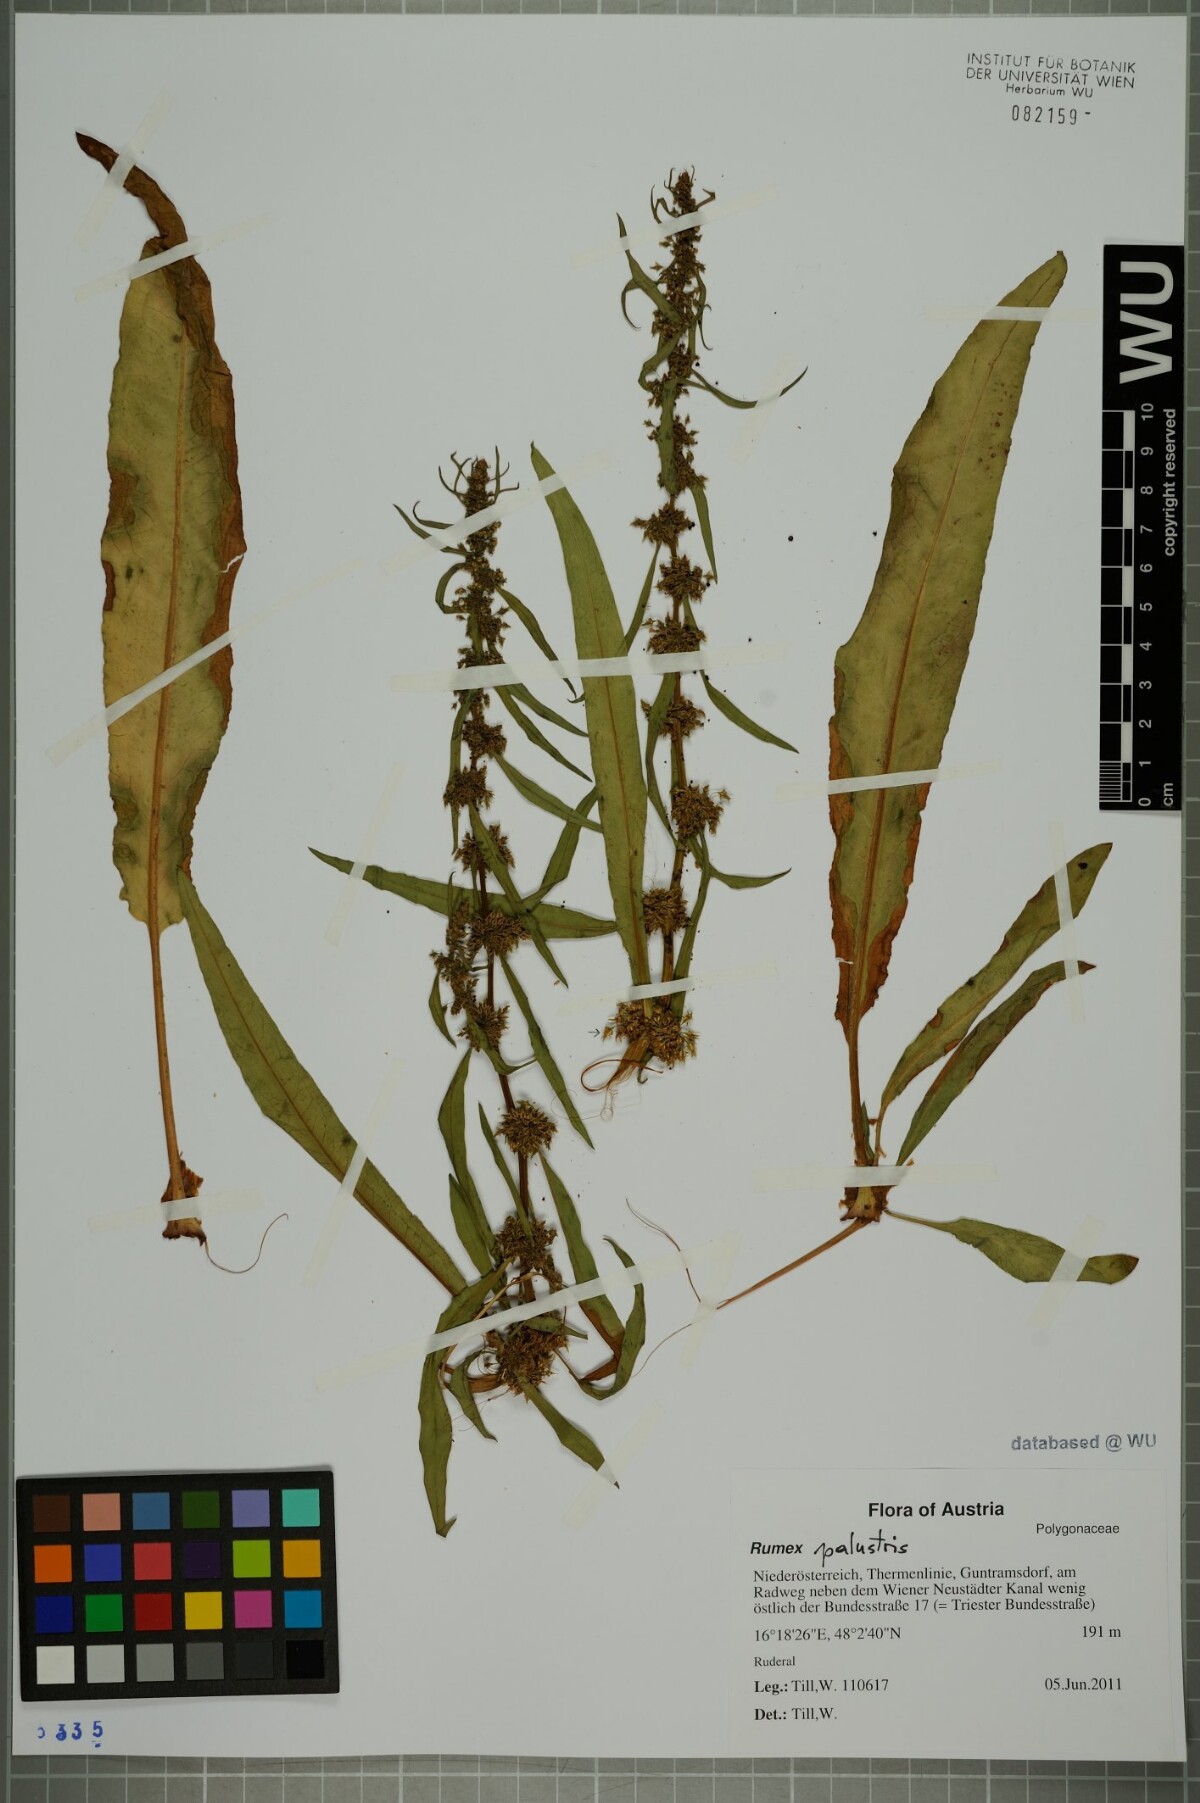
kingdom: Plantae
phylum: Tracheophyta
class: Magnoliopsida
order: Caryophyllales
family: Polygonaceae
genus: Rumex
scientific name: Rumex palustris
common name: Marsh dock
